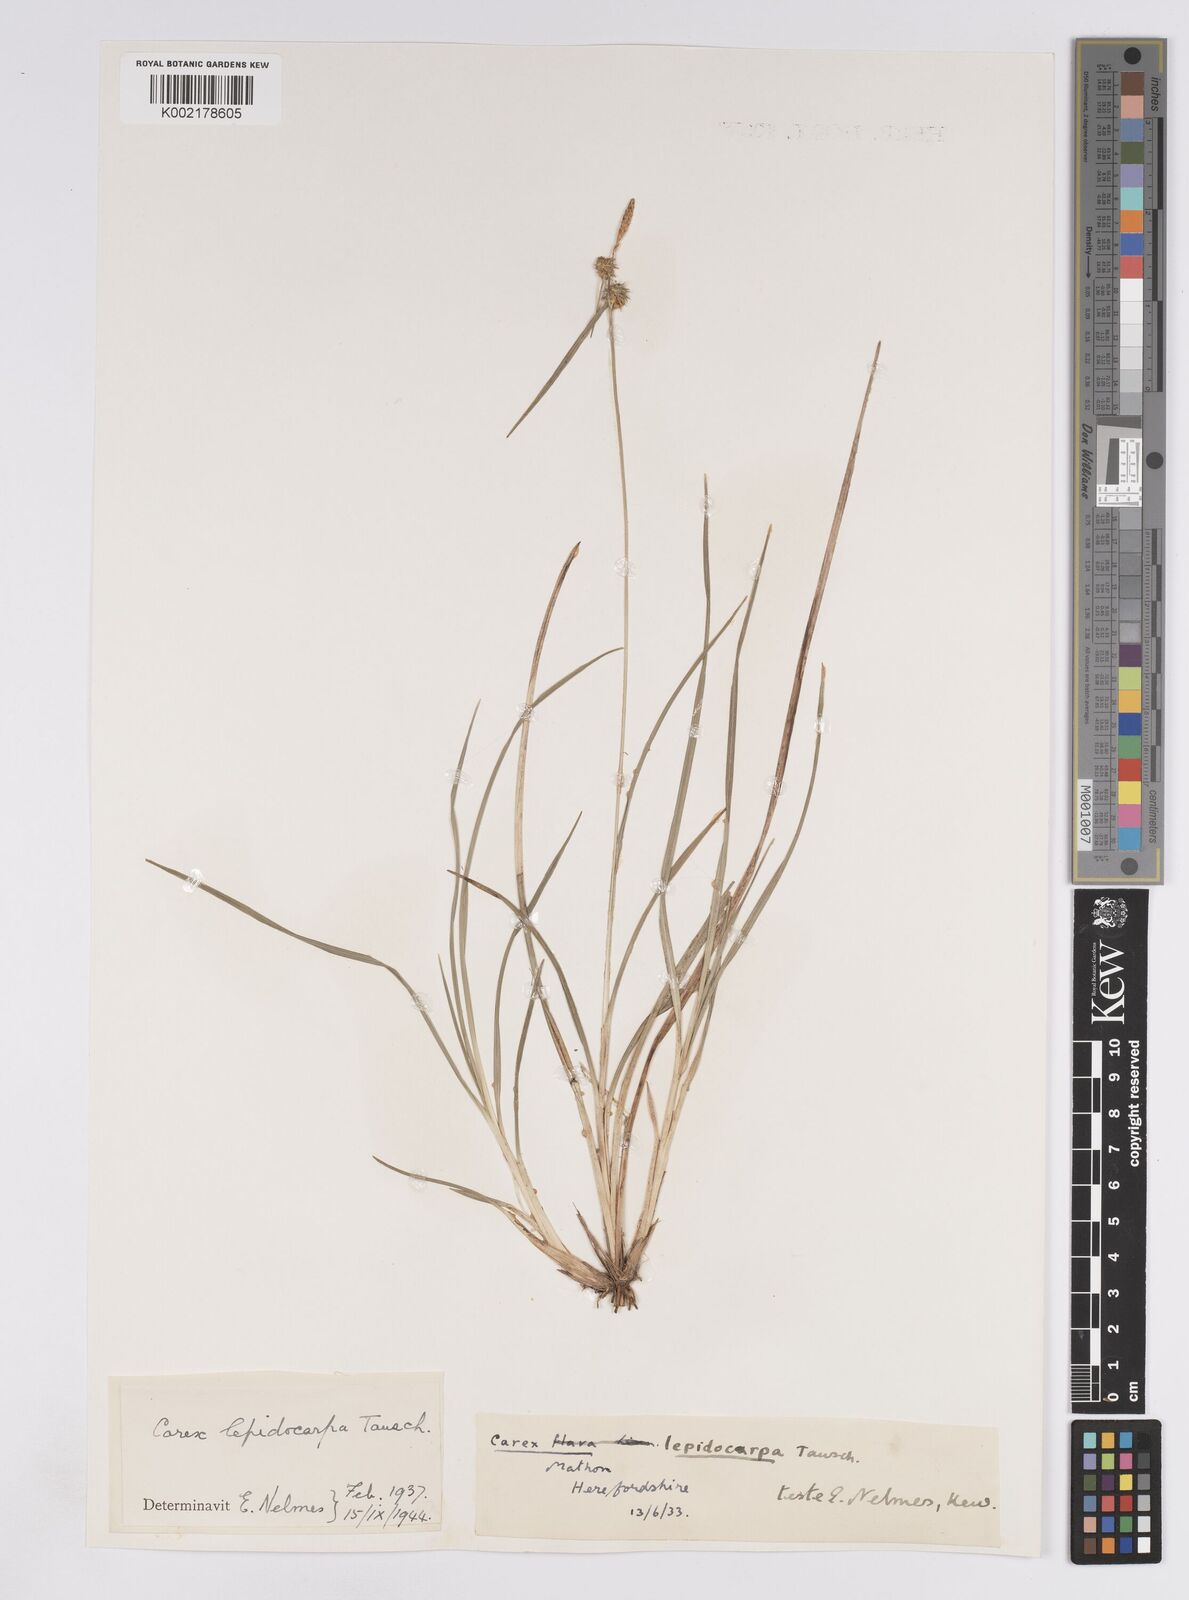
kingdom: Plantae
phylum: Tracheophyta
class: Liliopsida
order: Poales
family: Cyperaceae
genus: Carex
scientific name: Carex lepidocarpa
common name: Long-stalked yellow-sedge
